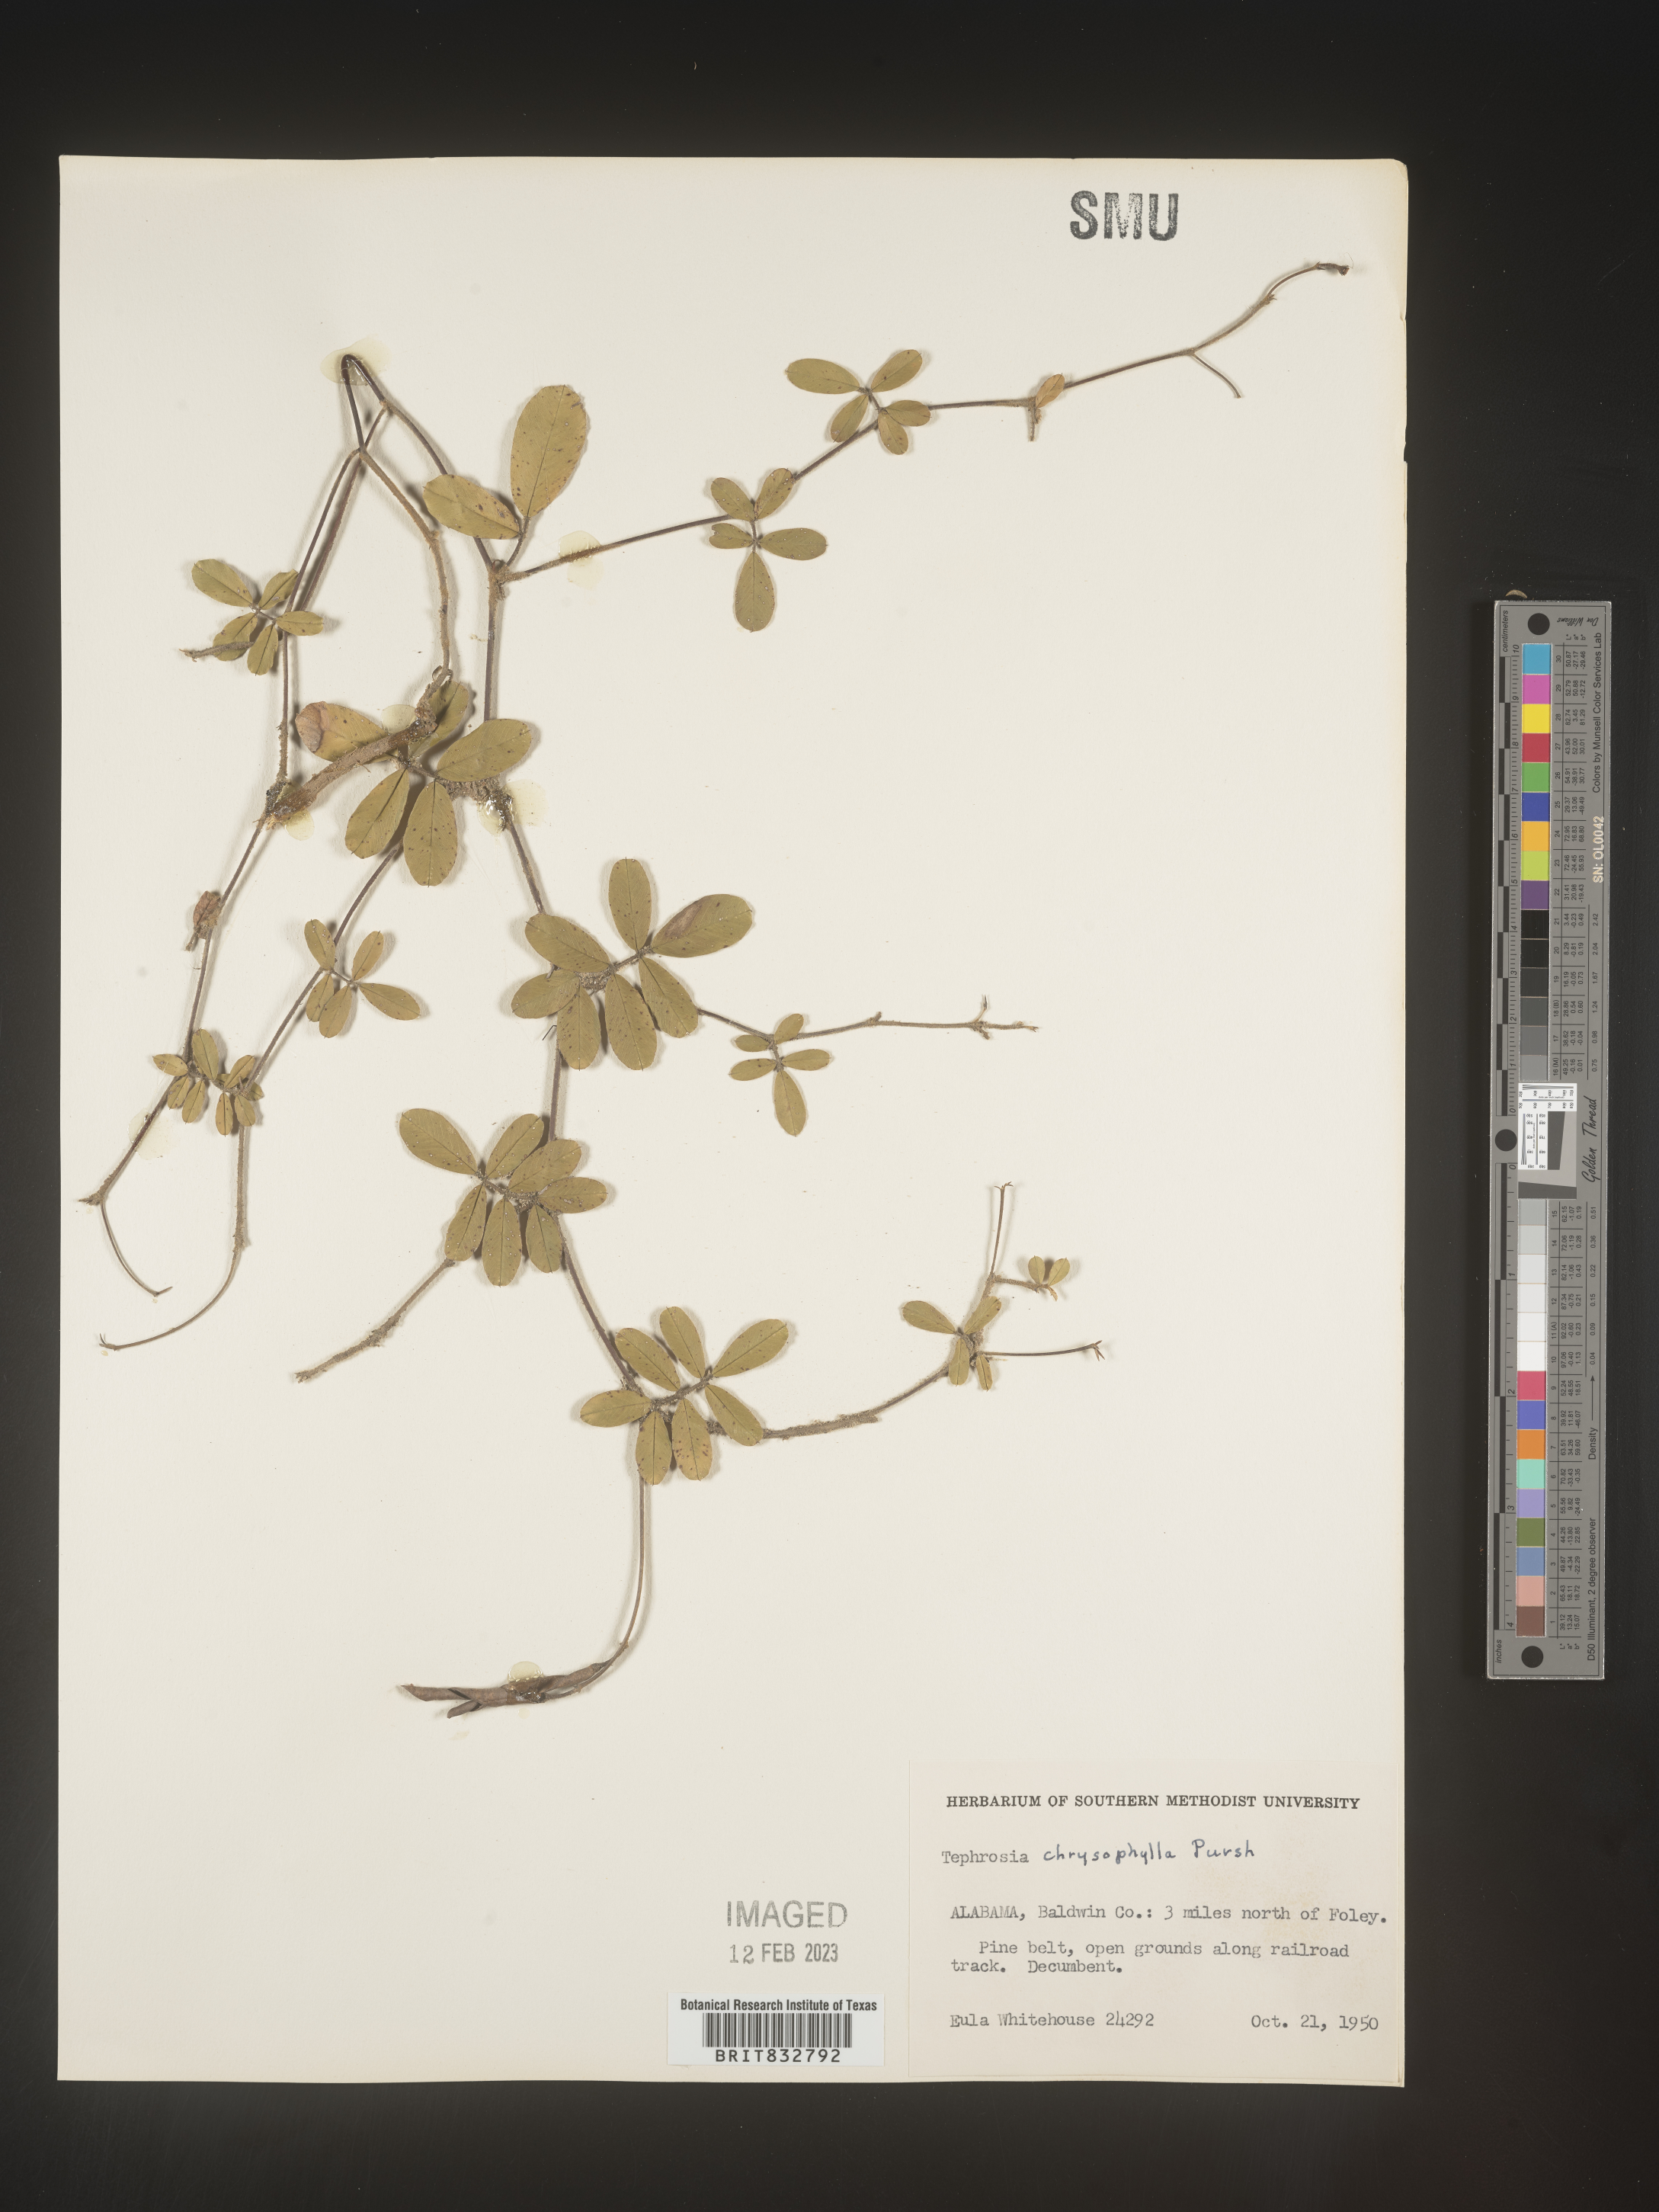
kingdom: Plantae
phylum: Tracheophyta
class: Magnoliopsida
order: Fabales
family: Fabaceae
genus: Tephrosia
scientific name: Tephrosia chrysophylla
